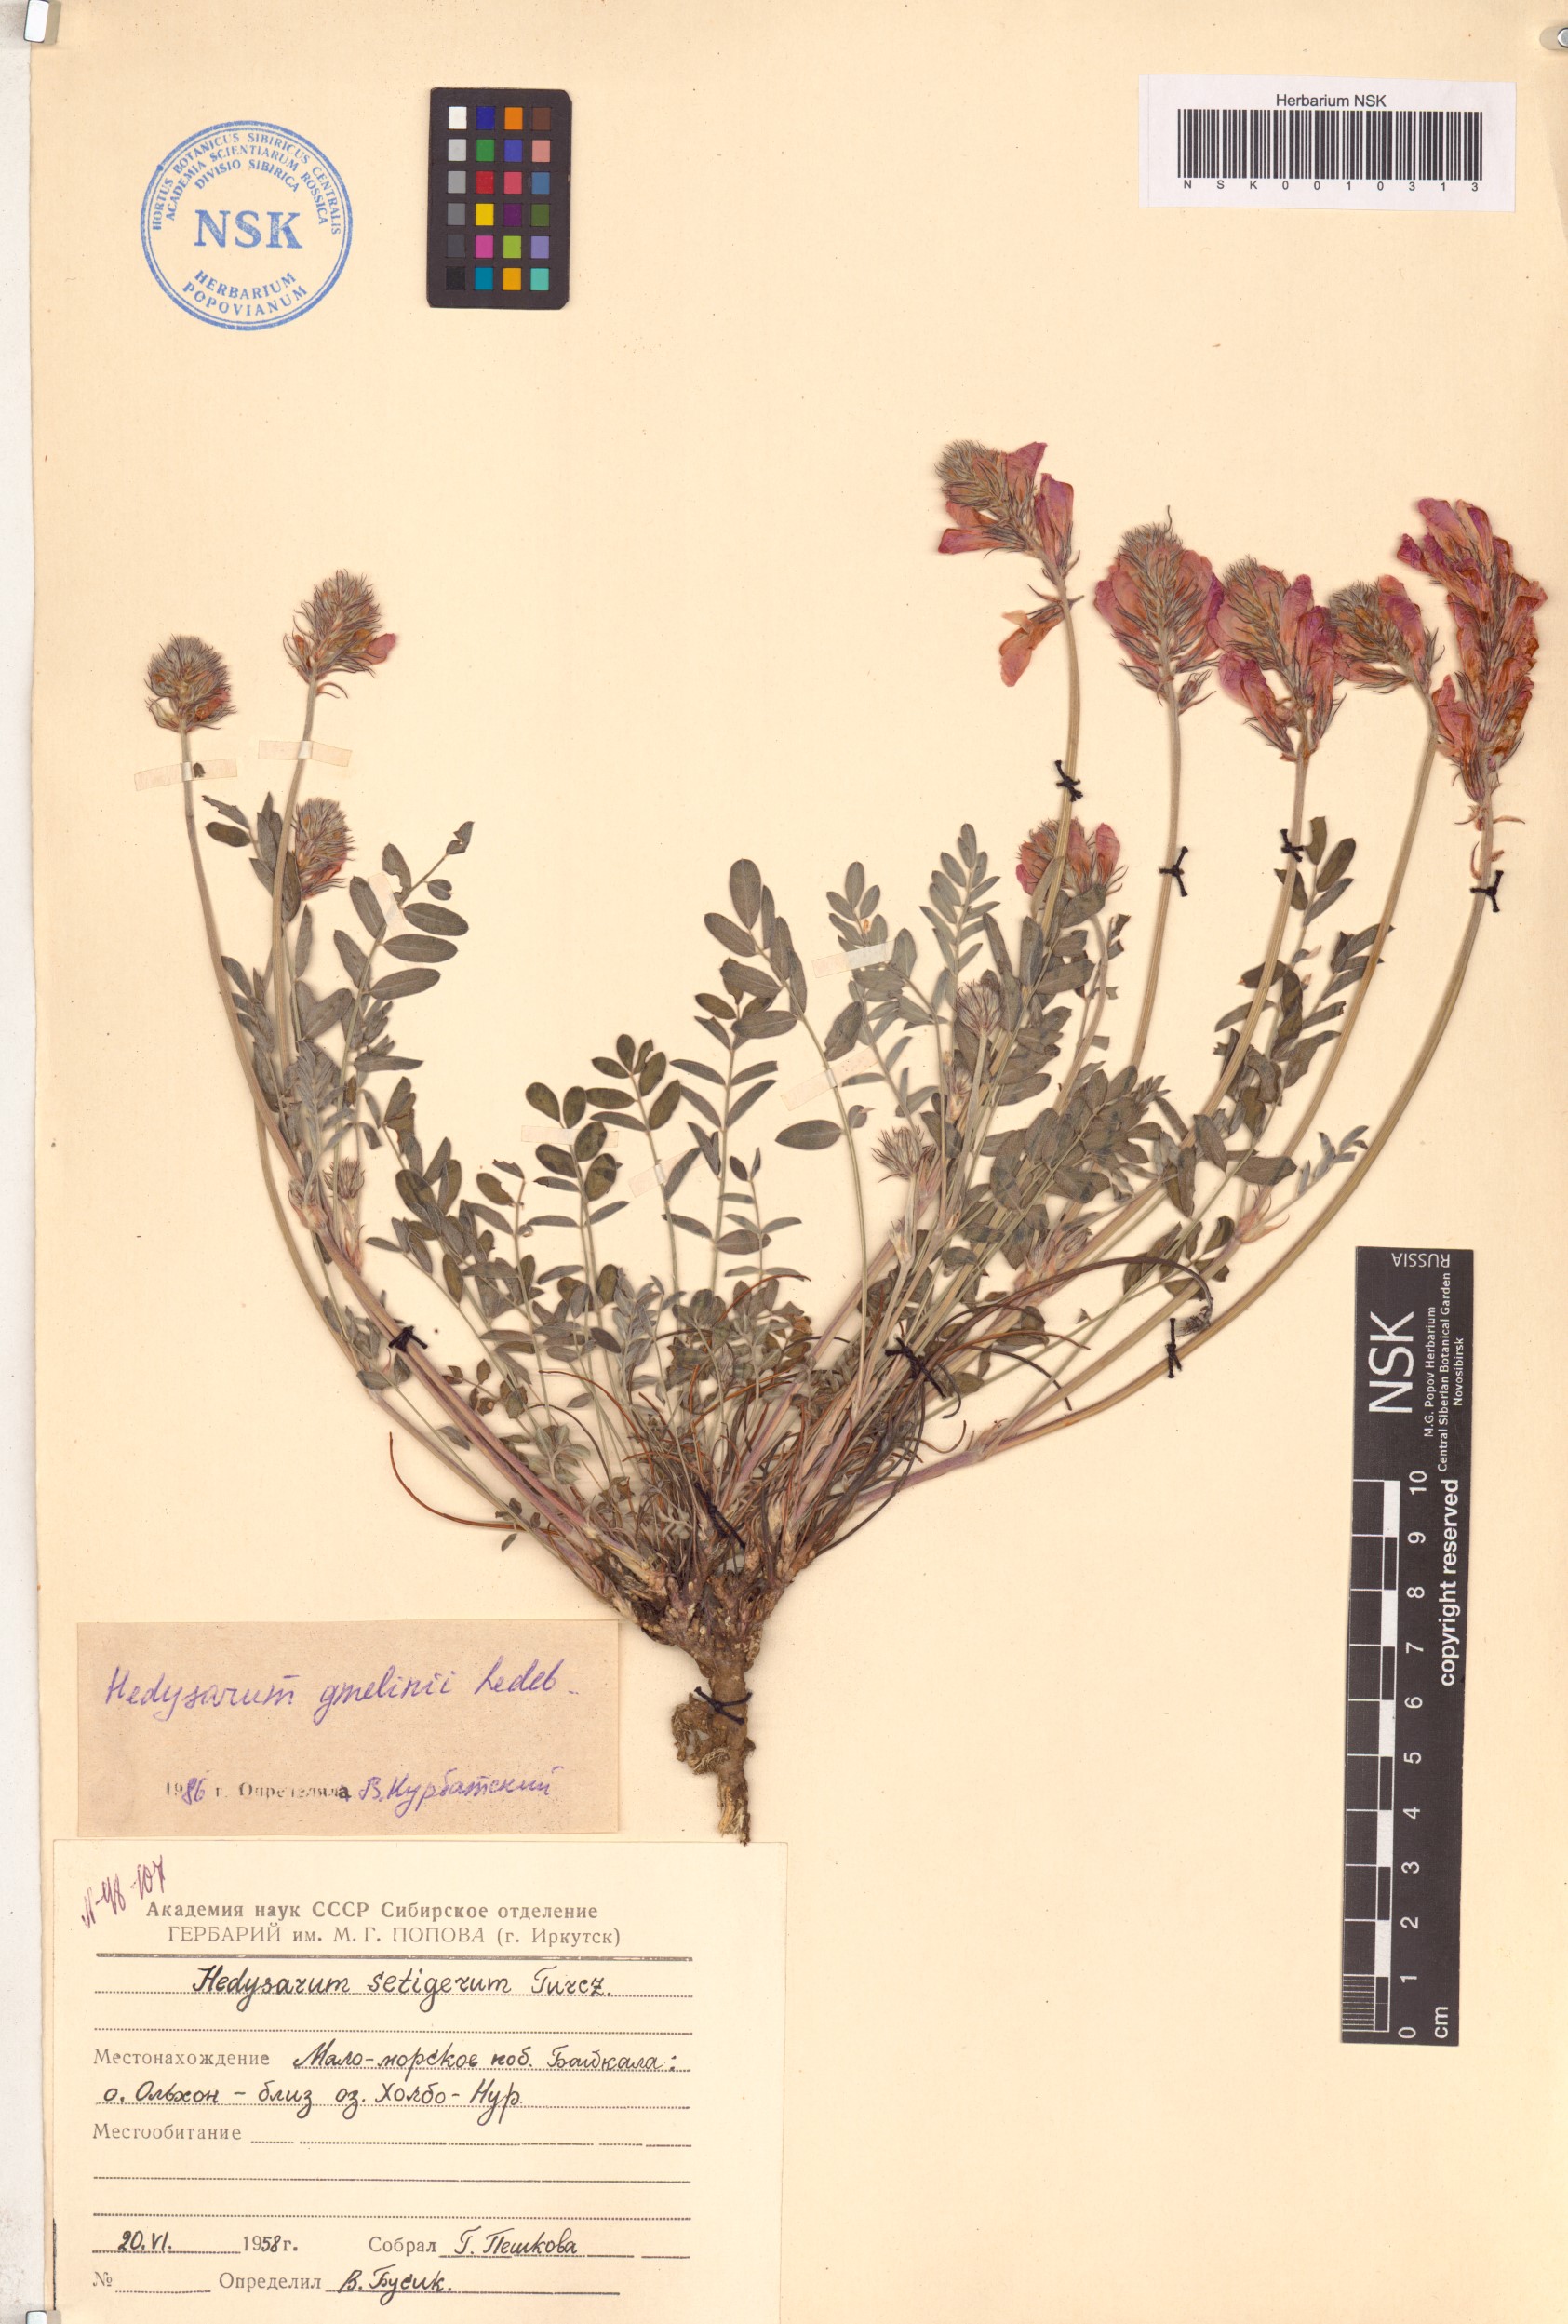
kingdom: Plantae
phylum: Tracheophyta
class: Magnoliopsida
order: Fabales
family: Fabaceae
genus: Hedysarum
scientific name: Hedysarum gmelinii
